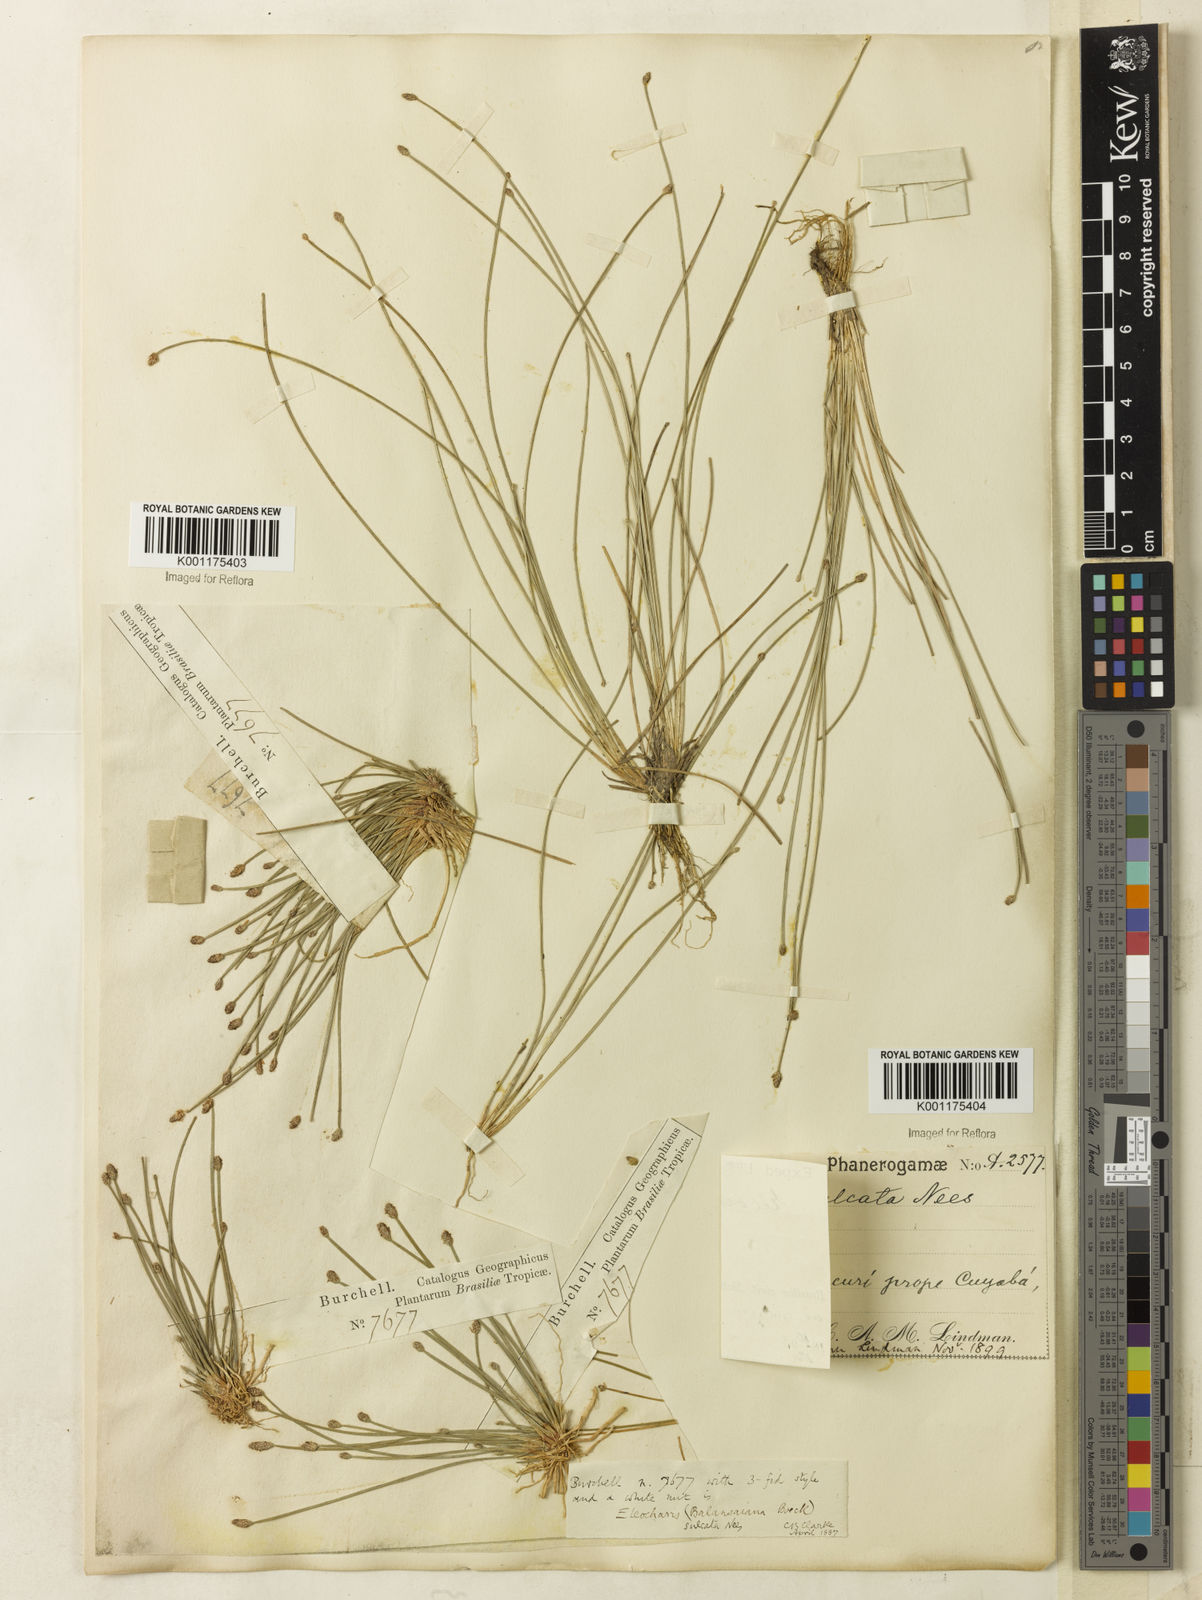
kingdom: Plantae
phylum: Tracheophyta
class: Liliopsida
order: Poales
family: Cyperaceae
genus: Eleocharis
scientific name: Eleocharis filiculmis
